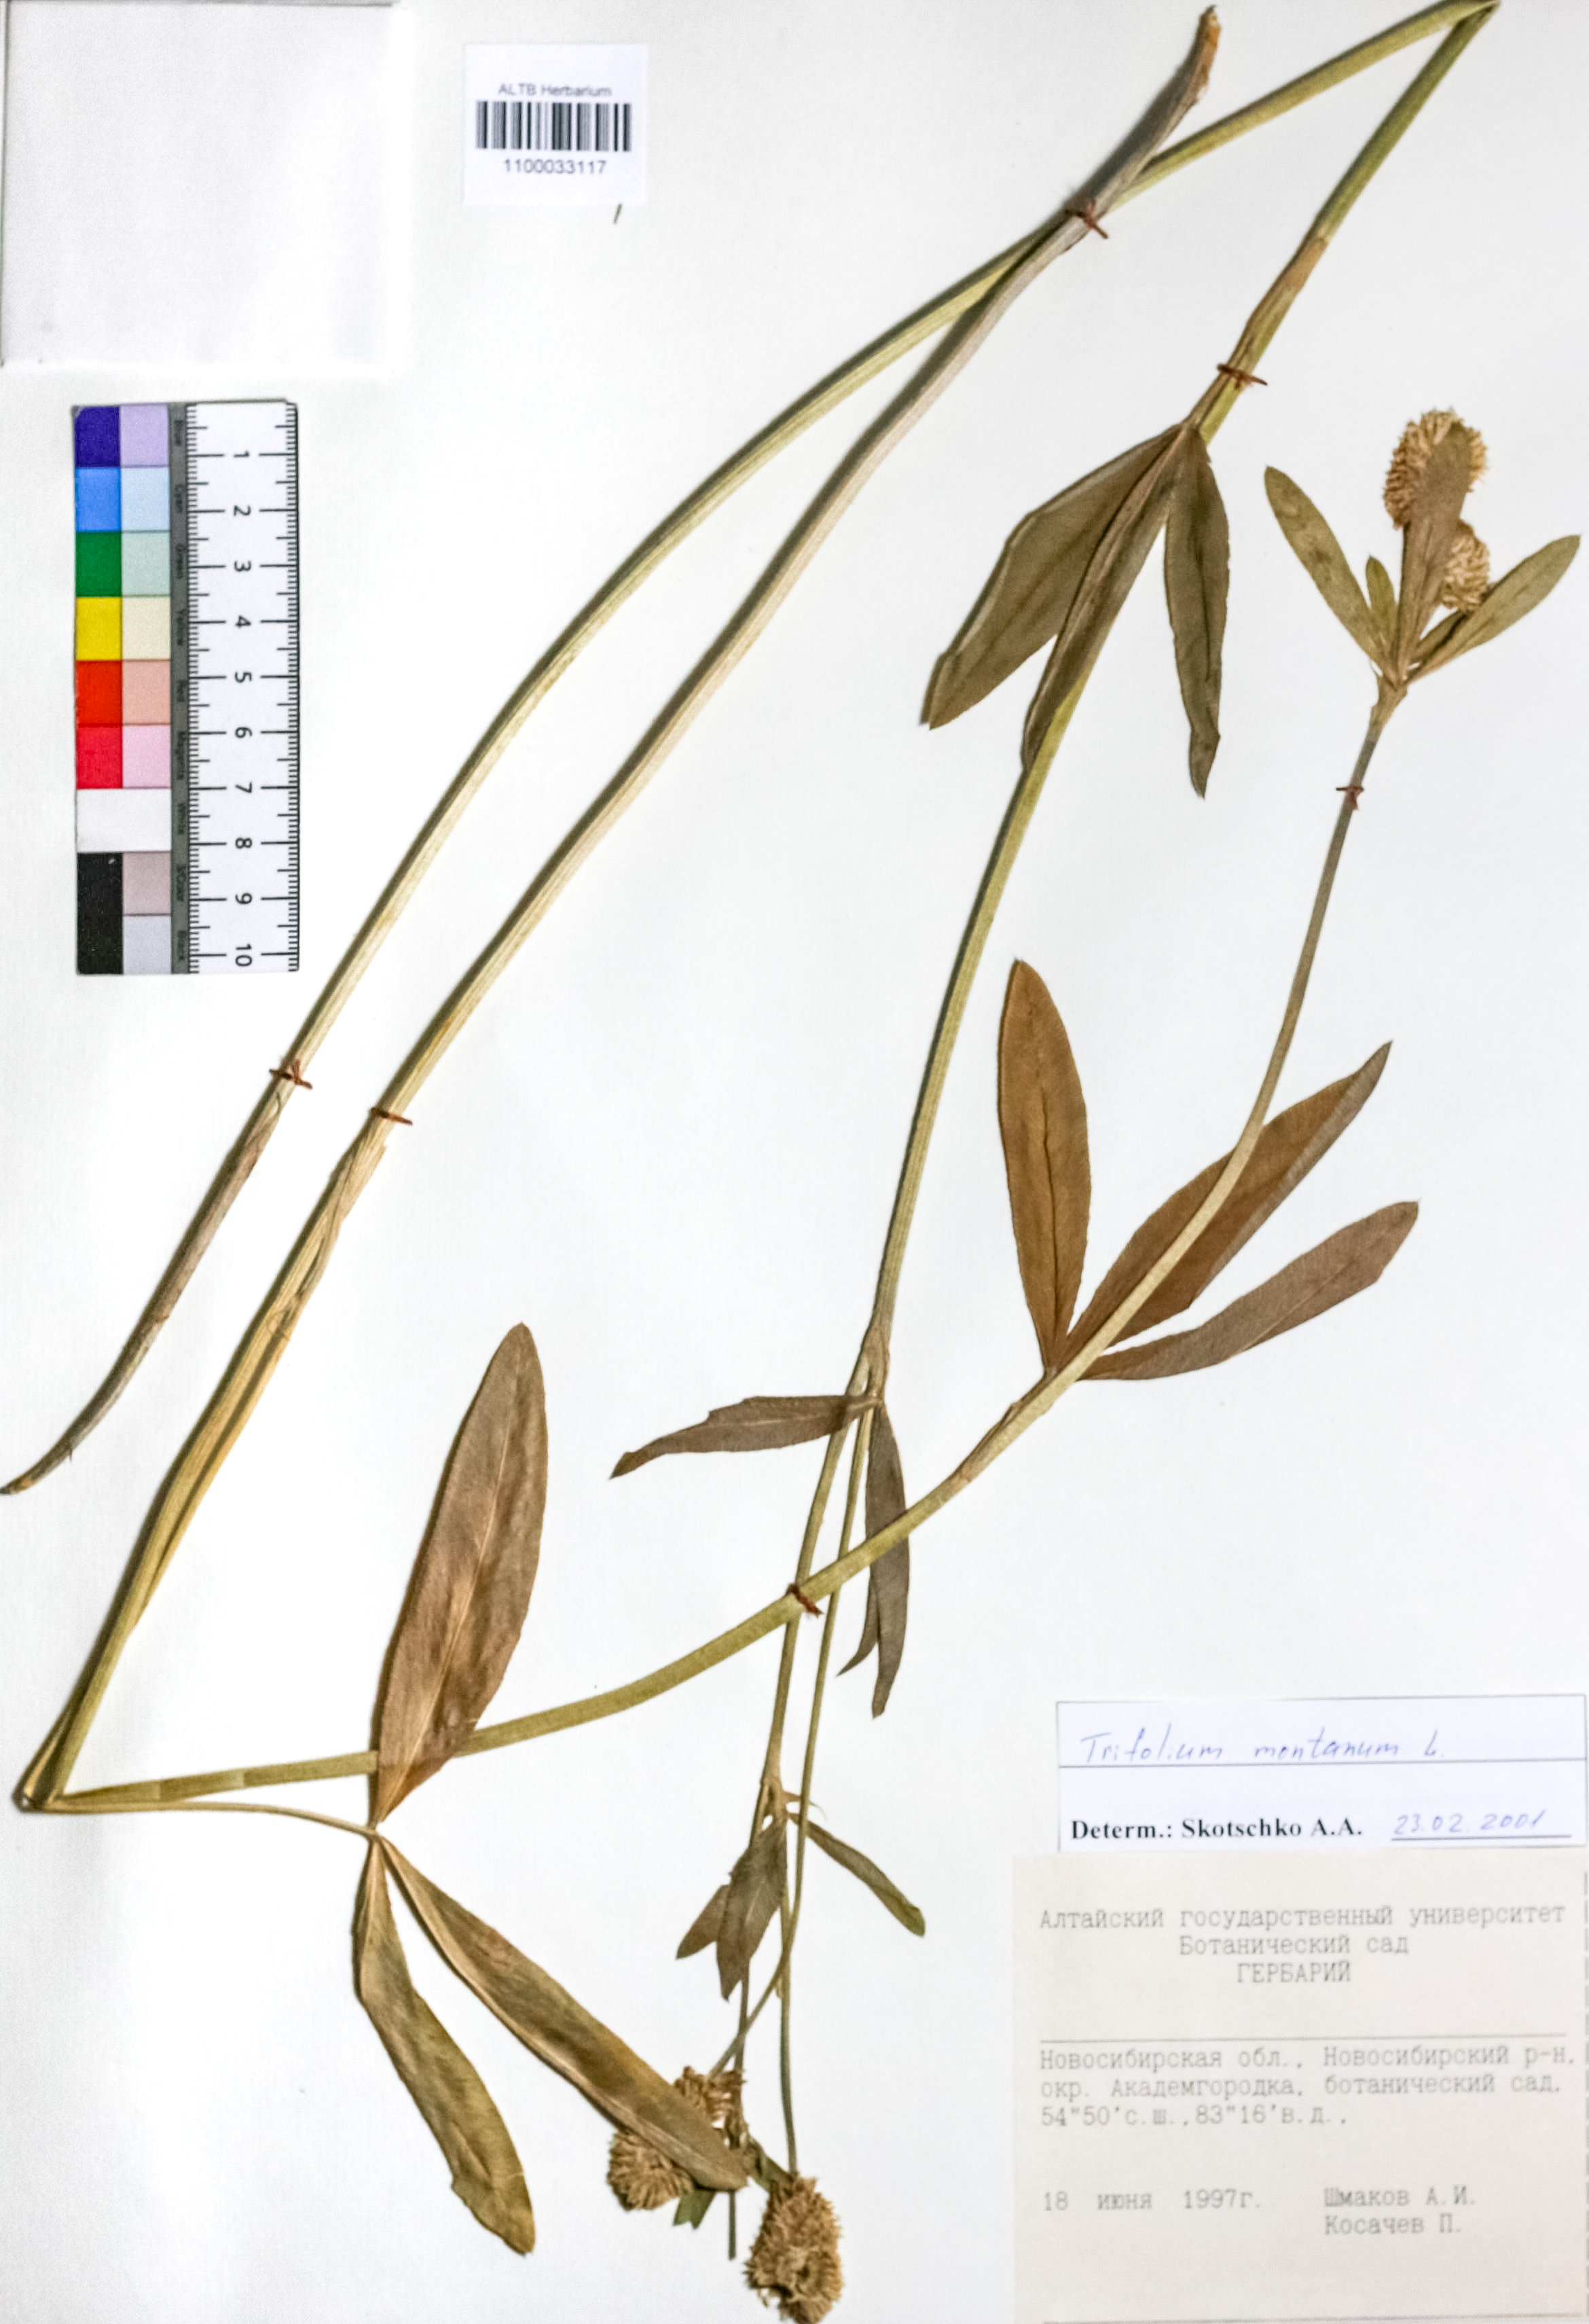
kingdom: Plantae
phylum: Tracheophyta
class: Magnoliopsida
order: Fabales
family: Fabaceae
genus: Trifolium
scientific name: Trifolium montanum
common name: Mountain clover
